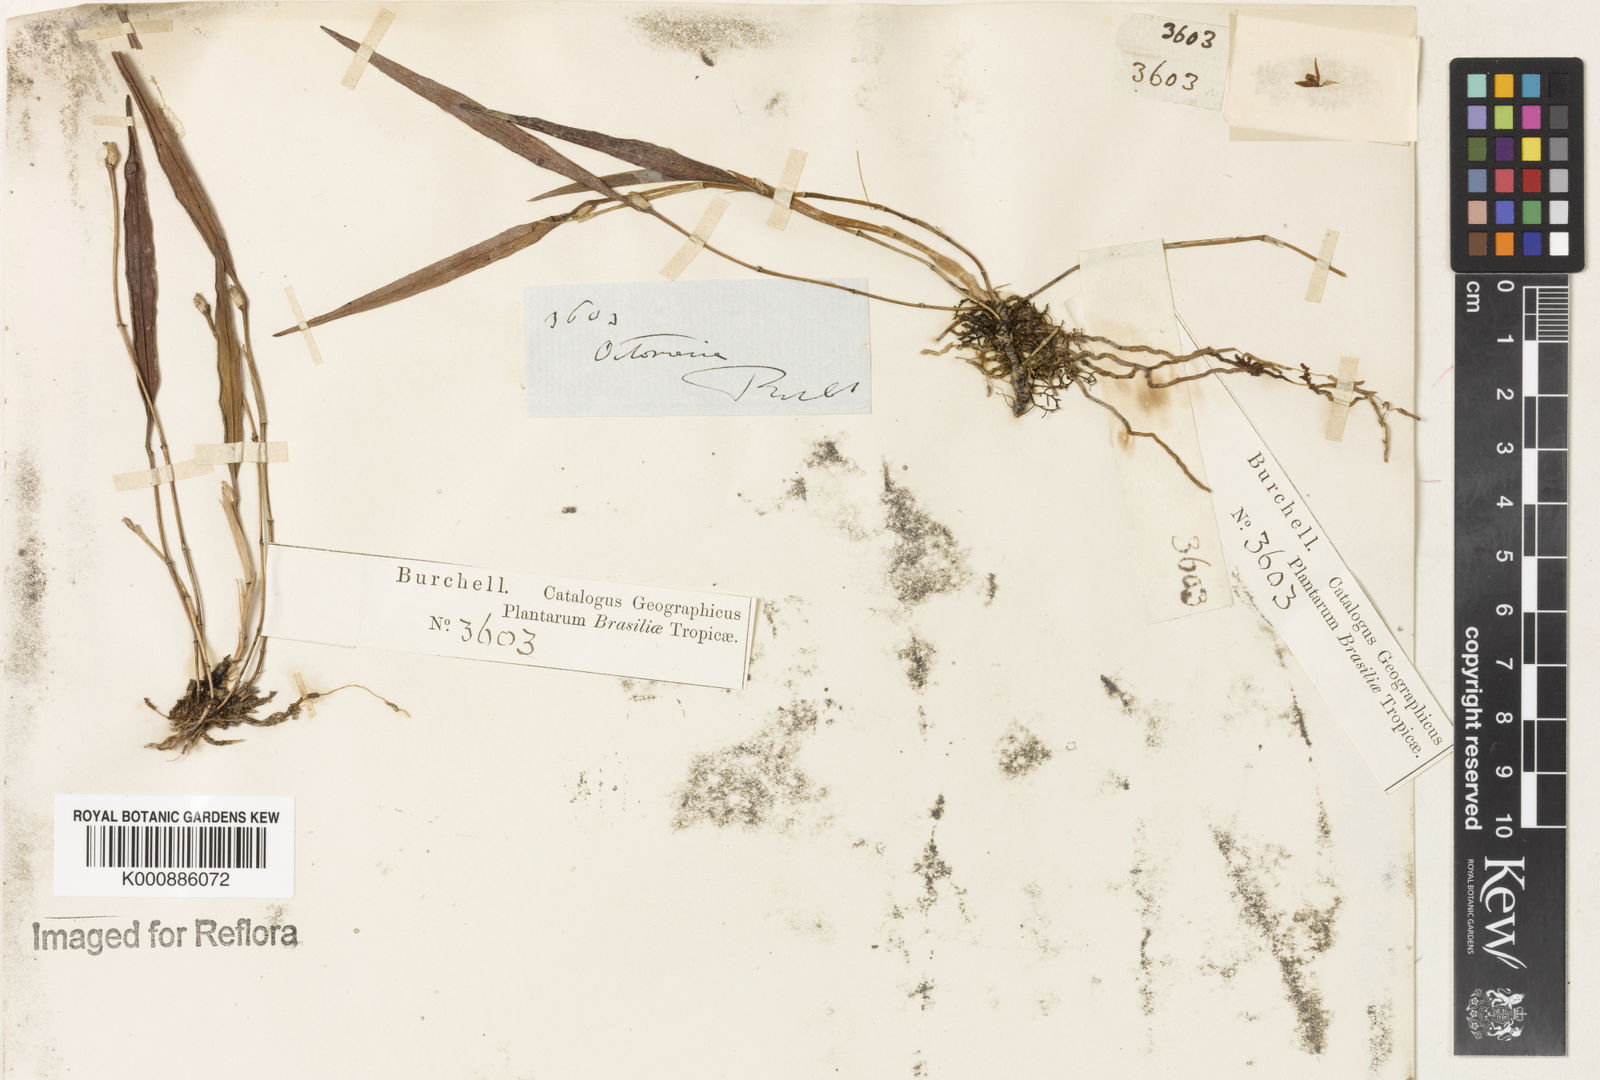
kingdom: Plantae
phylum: Tracheophyta
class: Liliopsida
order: Asparagales
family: Orchidaceae
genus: Octomeria
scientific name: Octomeria
